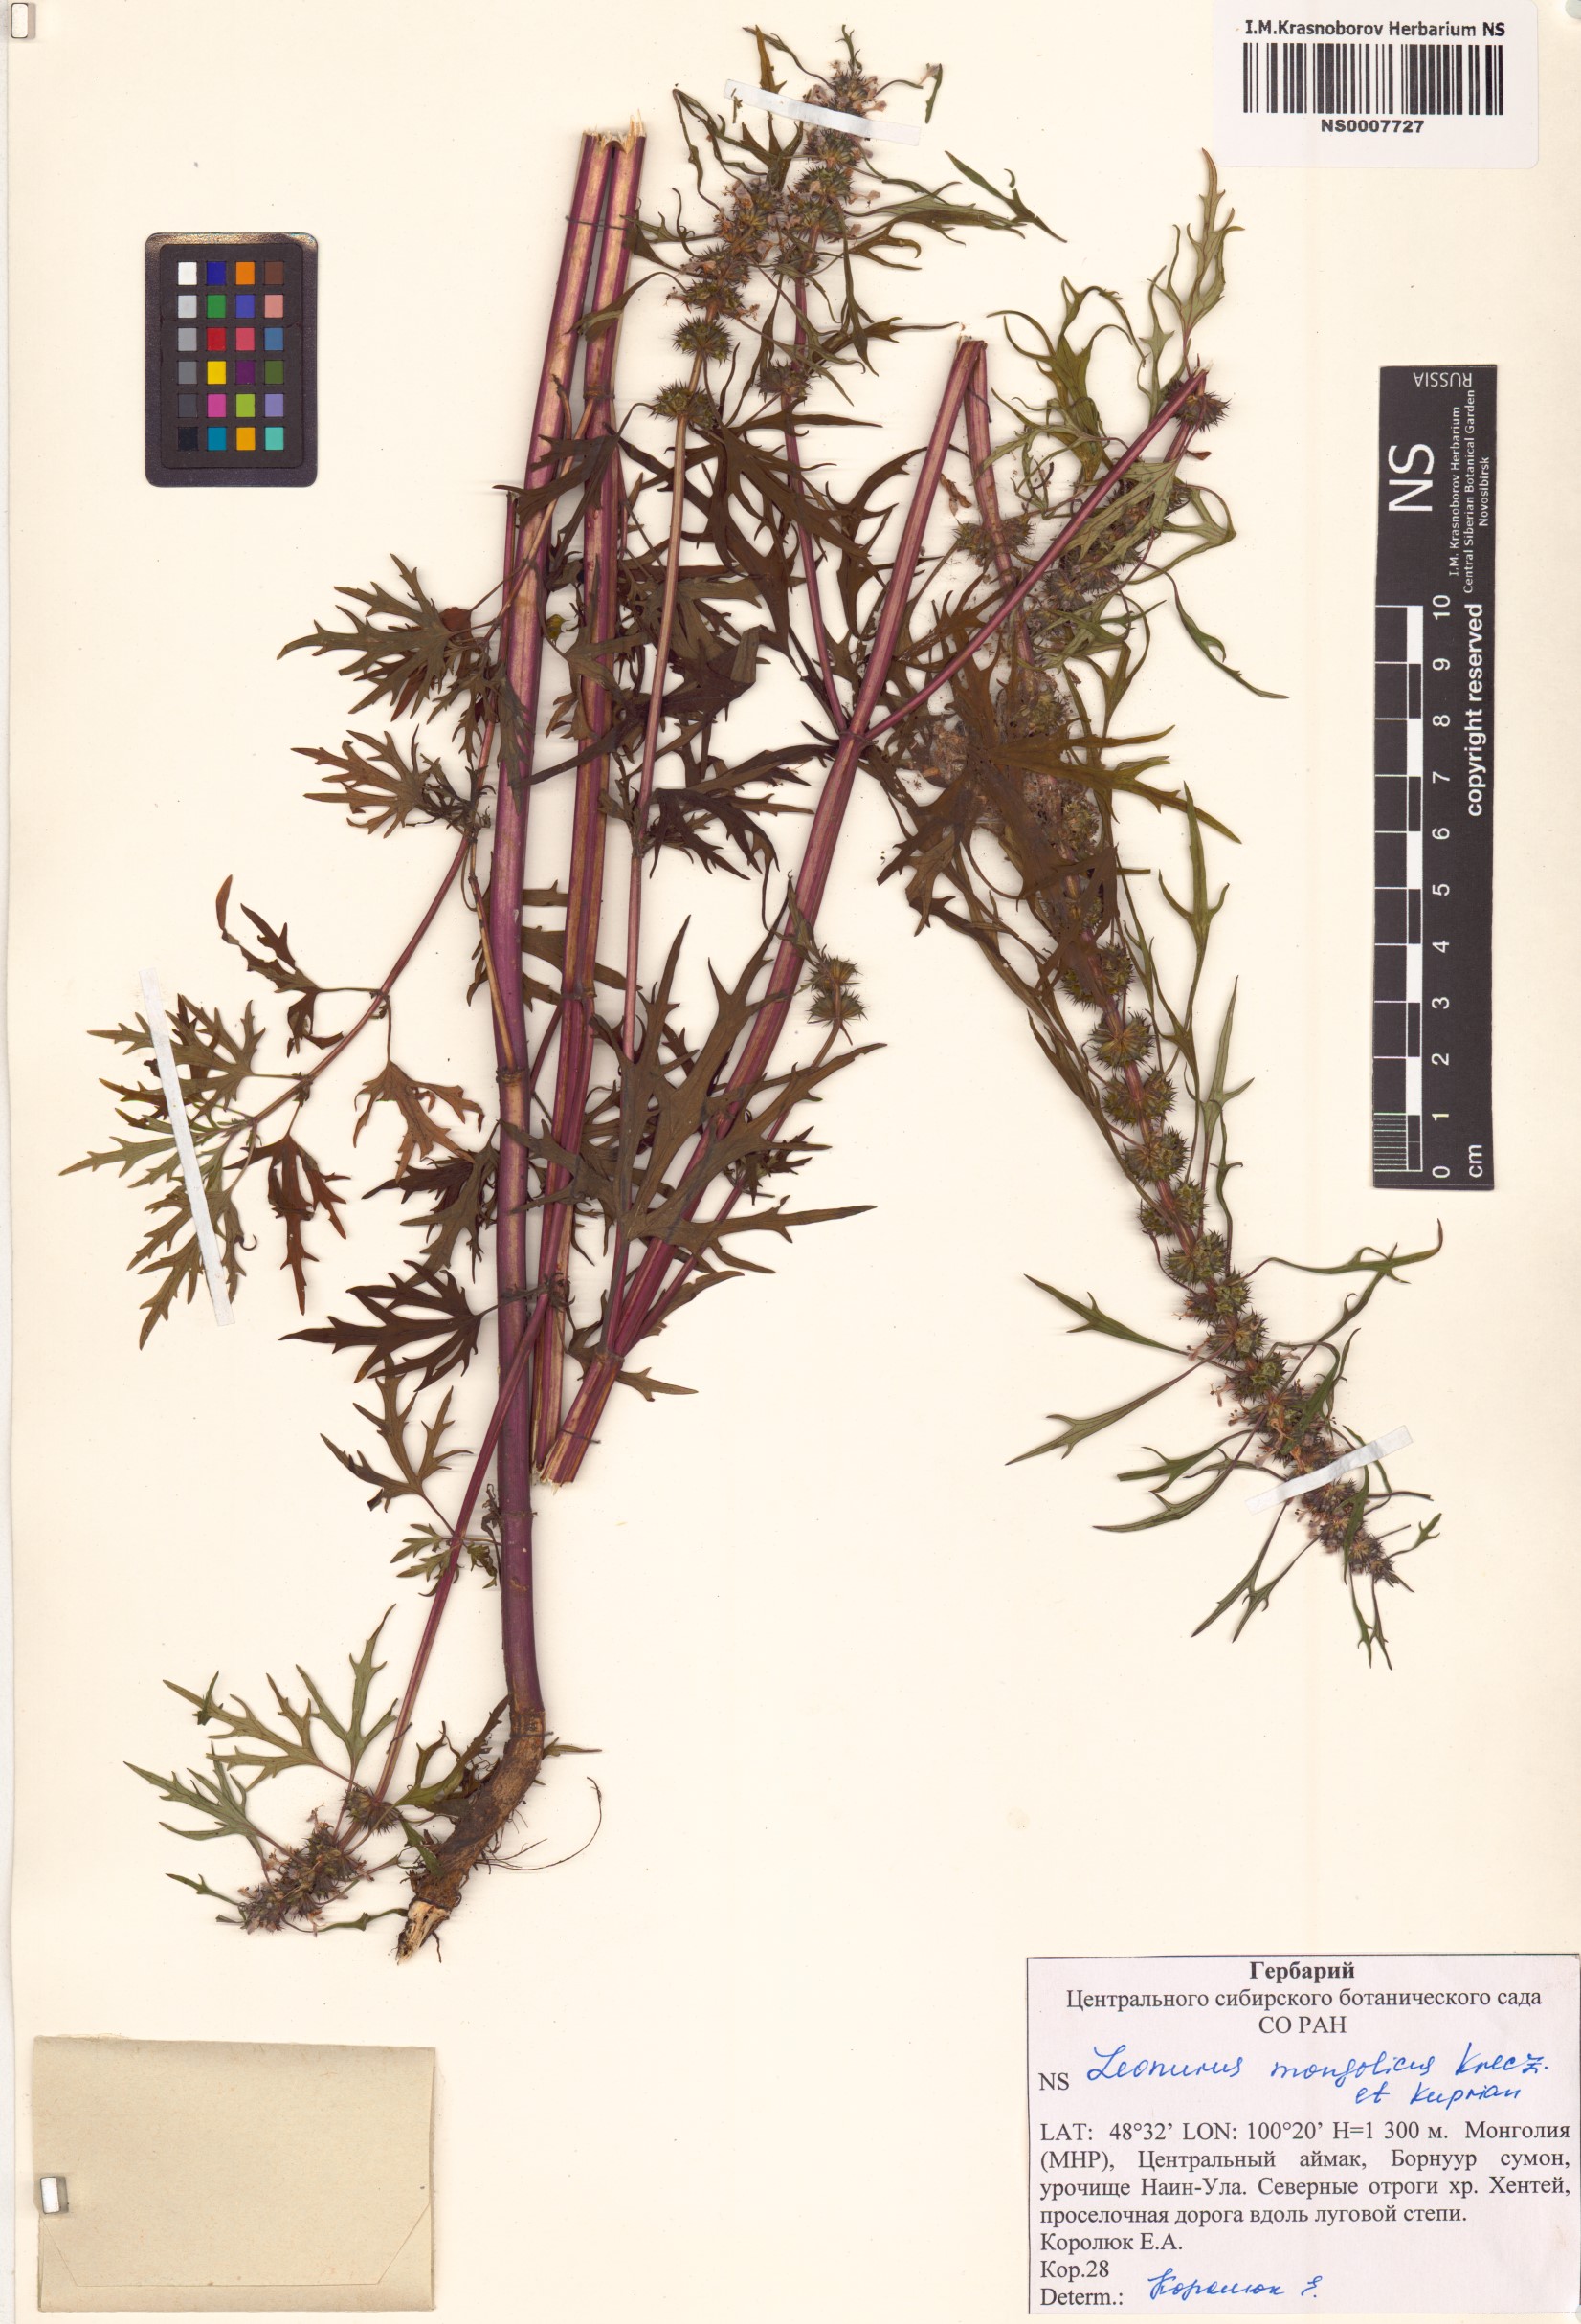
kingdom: Plantae
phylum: Tracheophyta
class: Magnoliopsida
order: Lamiales
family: Lamiaceae
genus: Leonurus
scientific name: Leonurus mongolicus
